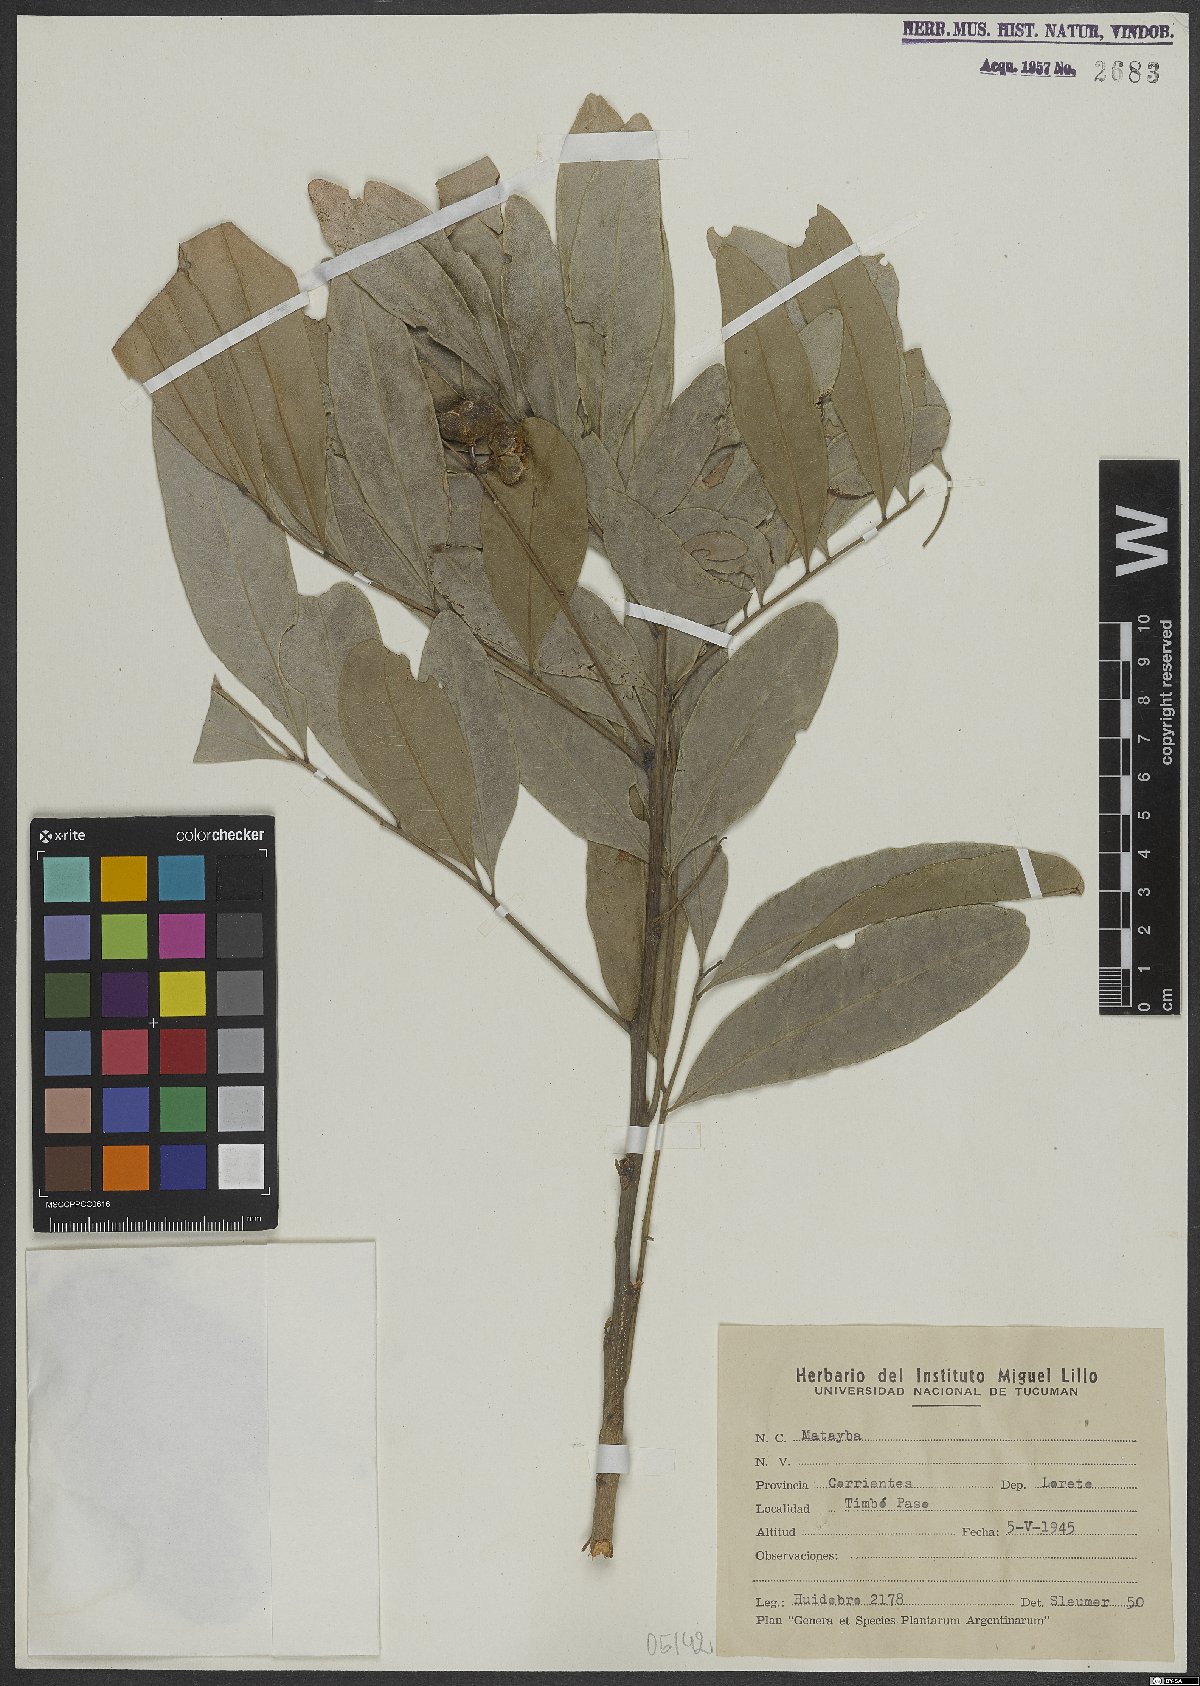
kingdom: Plantae
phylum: Tracheophyta
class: Magnoliopsida
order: Sapindales
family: Sapindaceae
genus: Matayba
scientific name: Matayba
